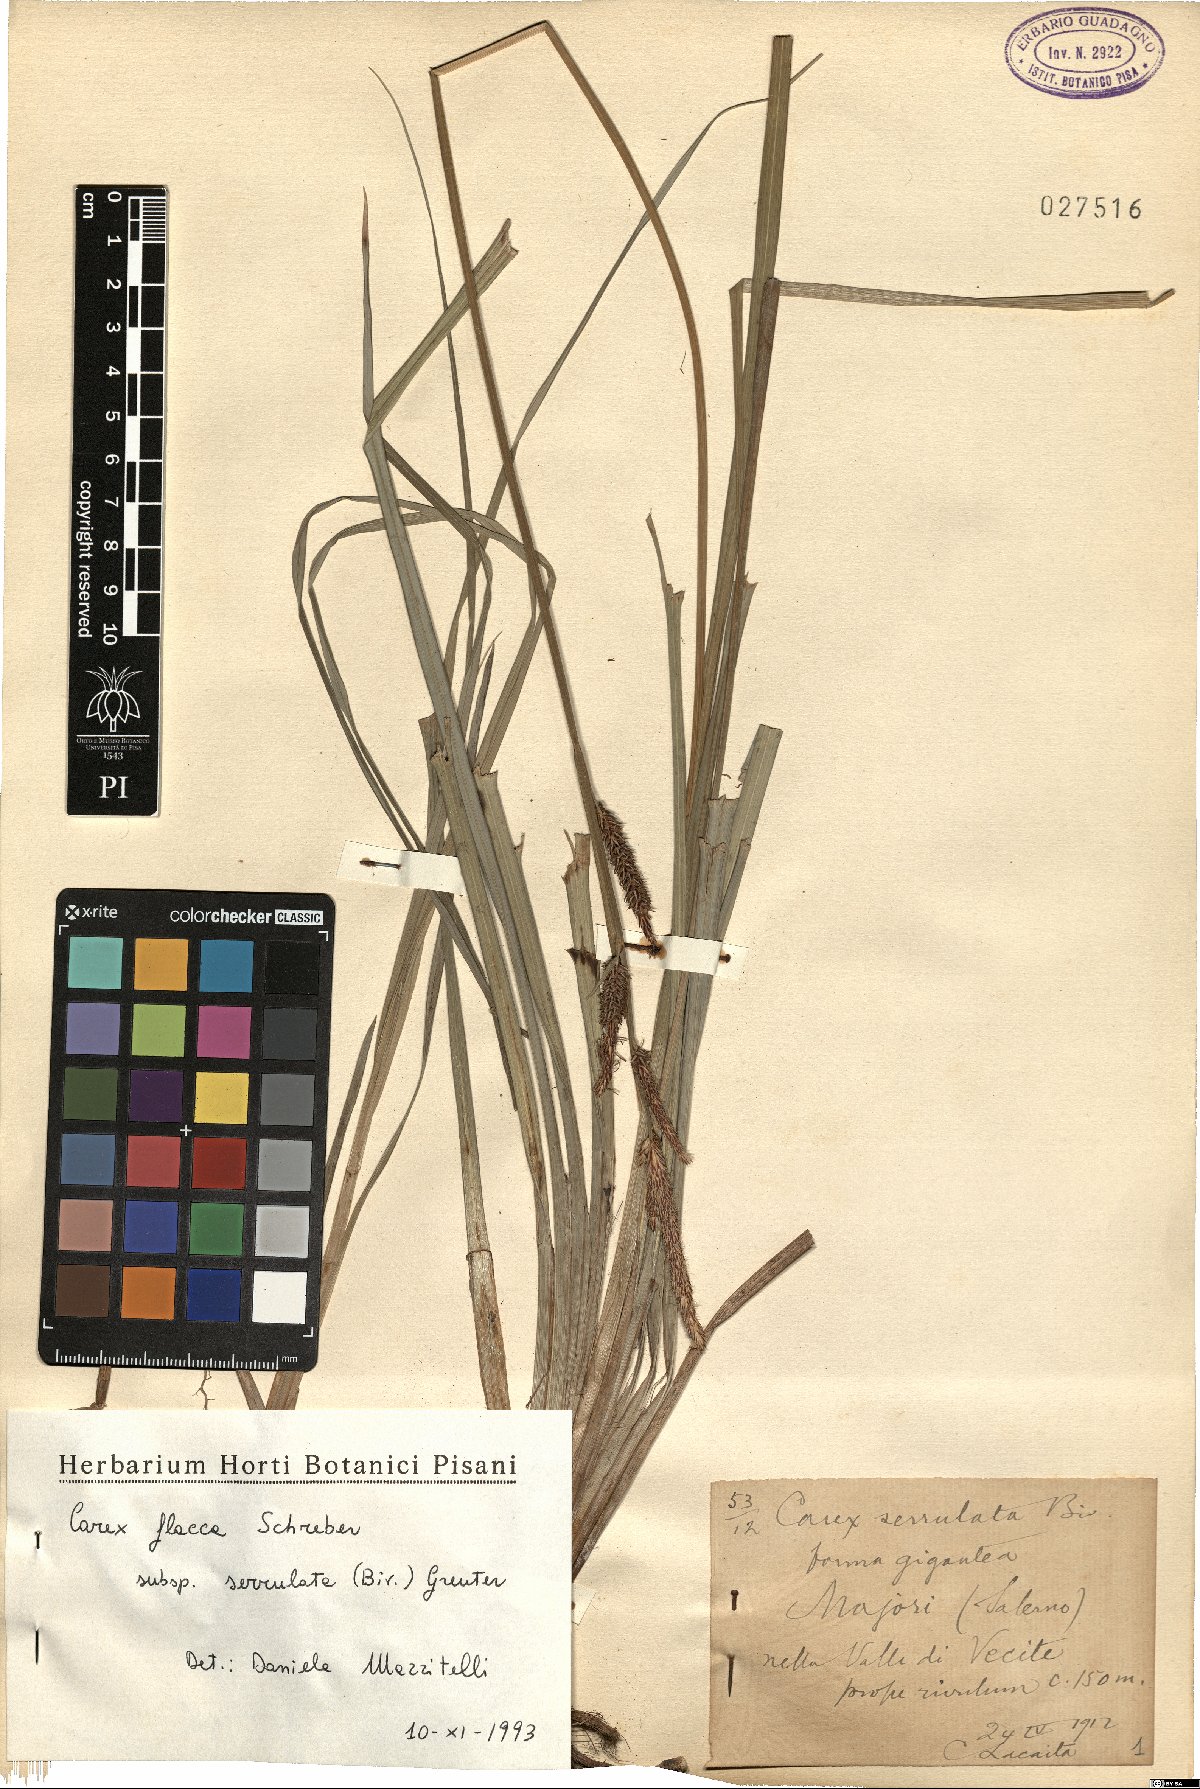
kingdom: Plantae
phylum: Tracheophyta
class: Liliopsida
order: Poales
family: Cyperaceae
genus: Carex
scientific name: Carex flacca
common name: Glaucous sedge
